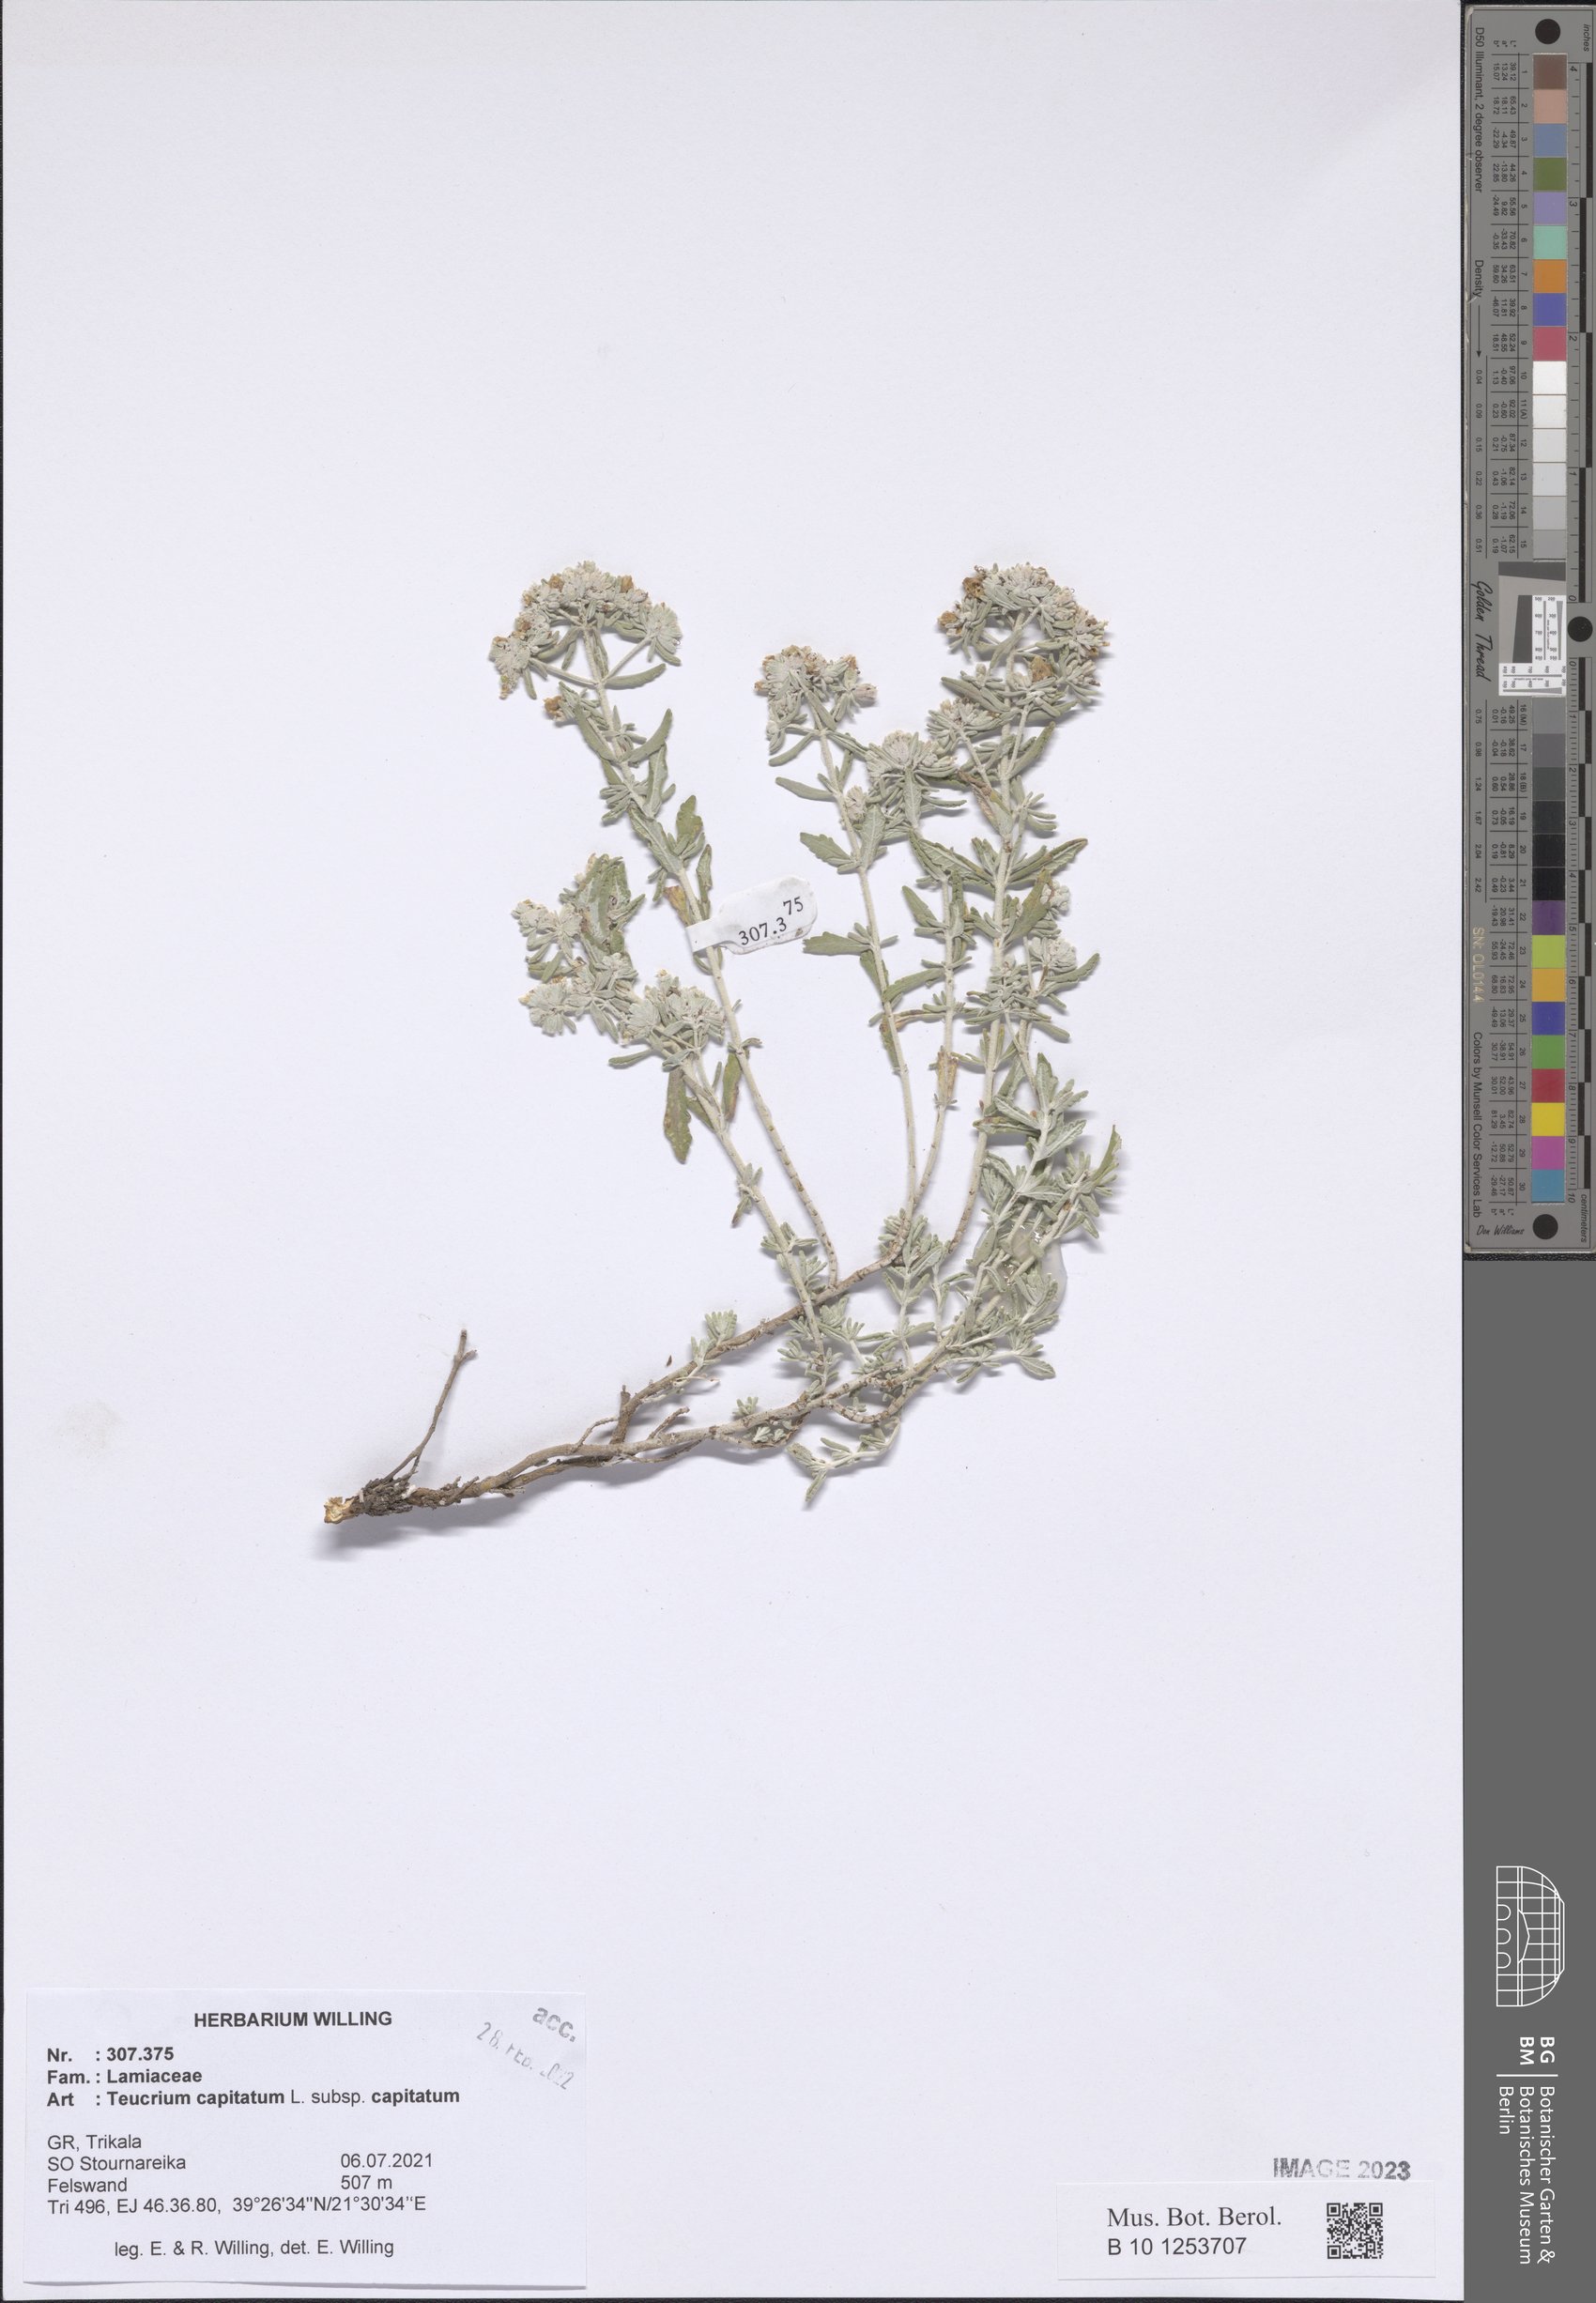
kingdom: Plantae
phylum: Tracheophyta
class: Magnoliopsida
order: Lamiales
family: Lamiaceae
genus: Teucrium
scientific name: Teucrium capitatum
